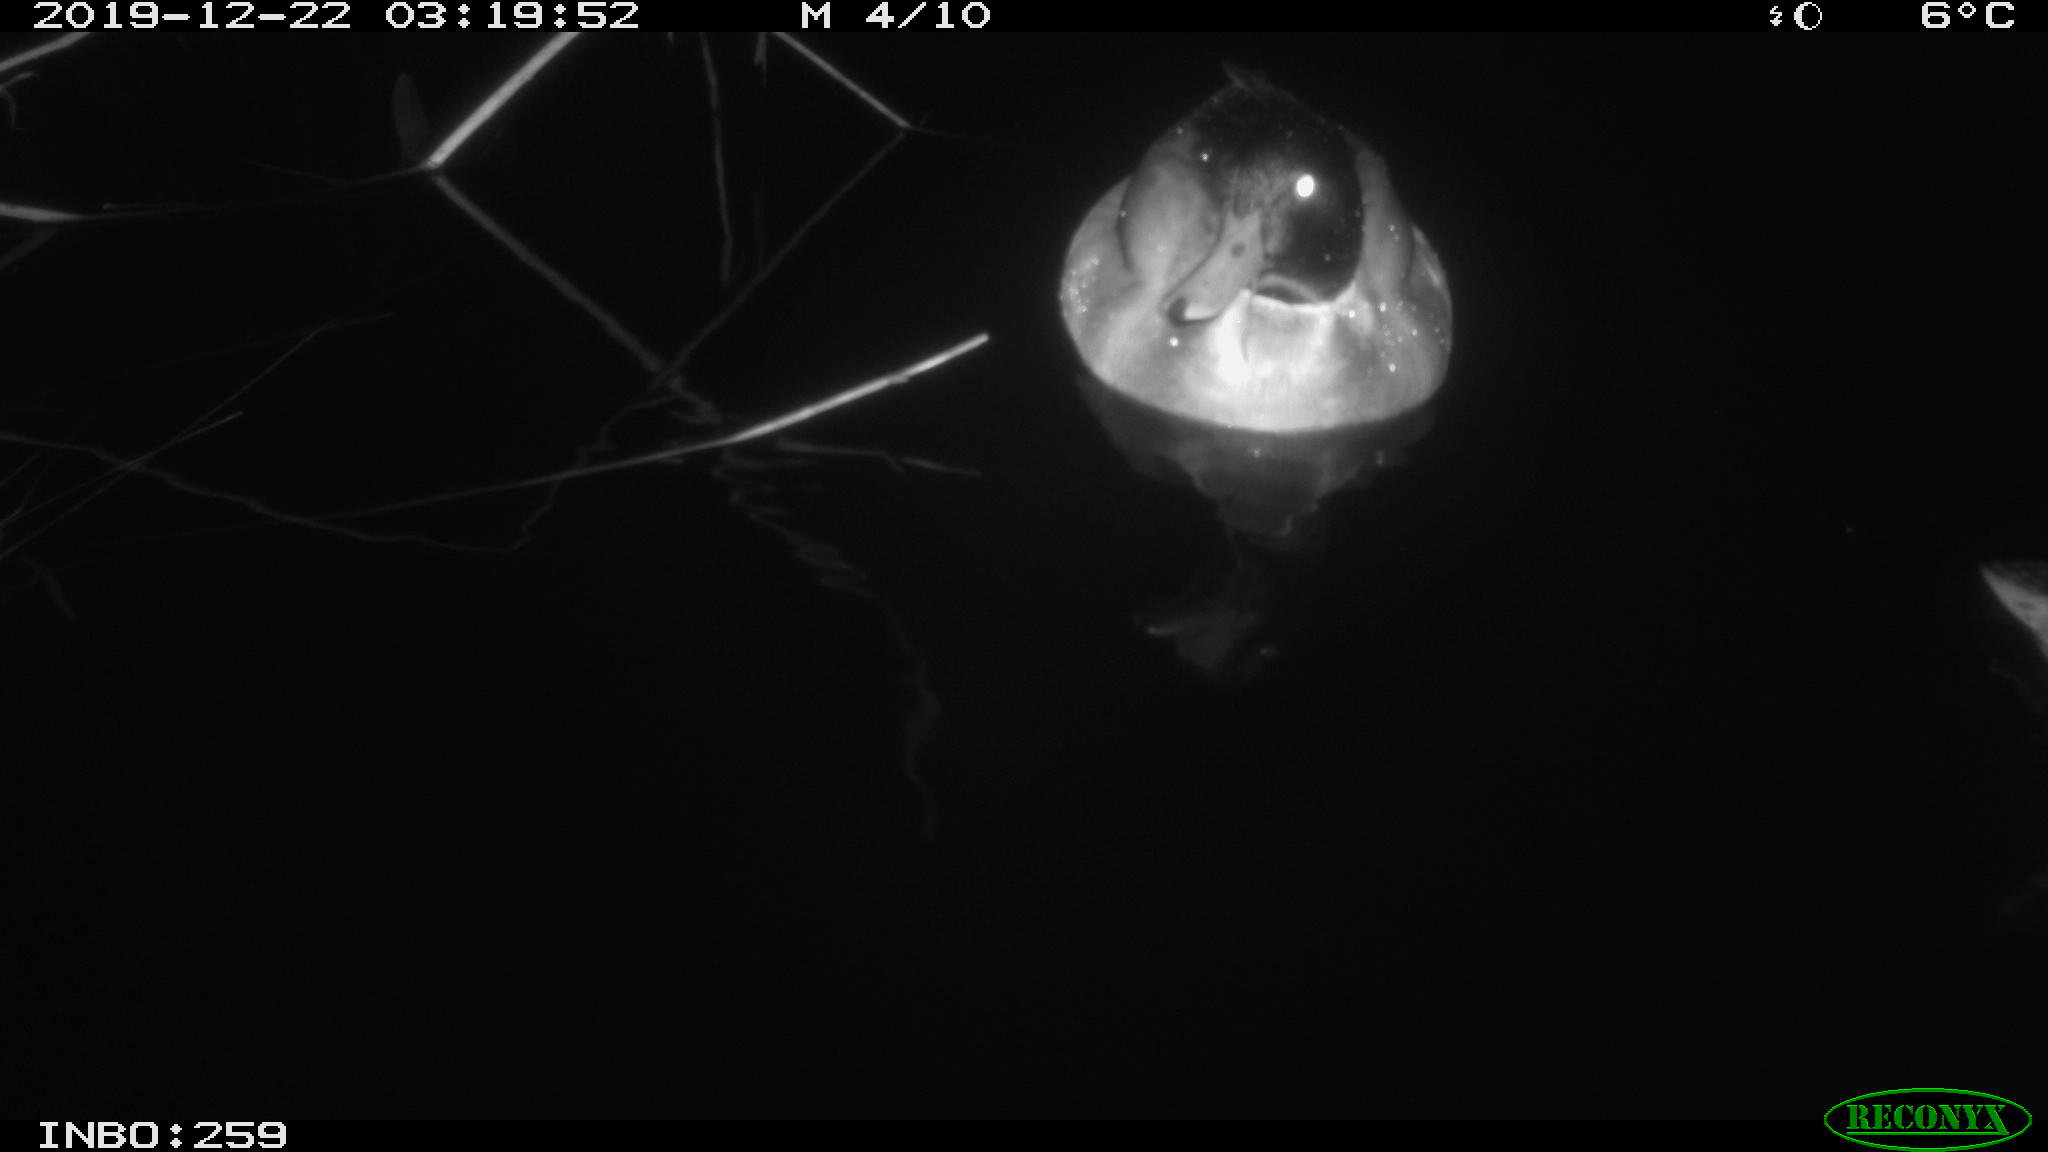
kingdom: Animalia
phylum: Chordata
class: Aves
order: Anseriformes
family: Anatidae
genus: Anas
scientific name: Anas platyrhynchos
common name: Mallard
